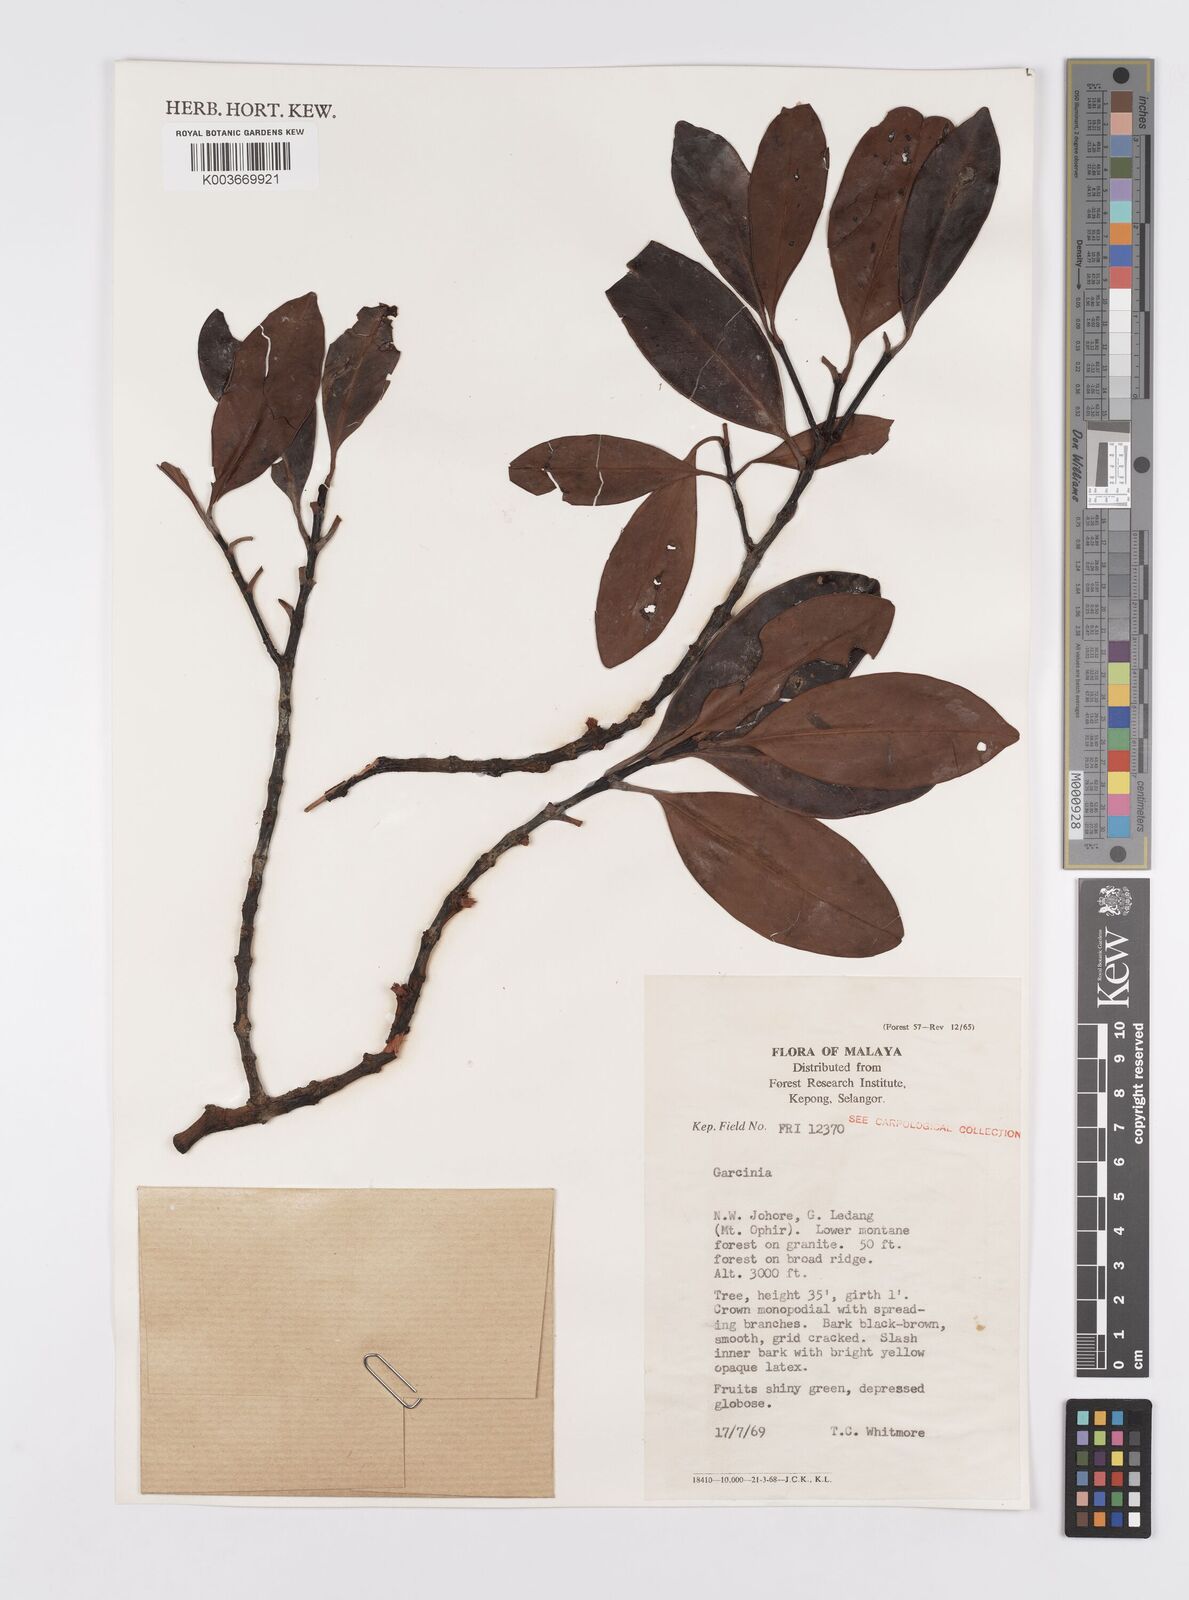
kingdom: Plantae
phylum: Tracheophyta
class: Magnoliopsida
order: Malpighiales
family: Clusiaceae
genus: Garcinia
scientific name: Garcinia
